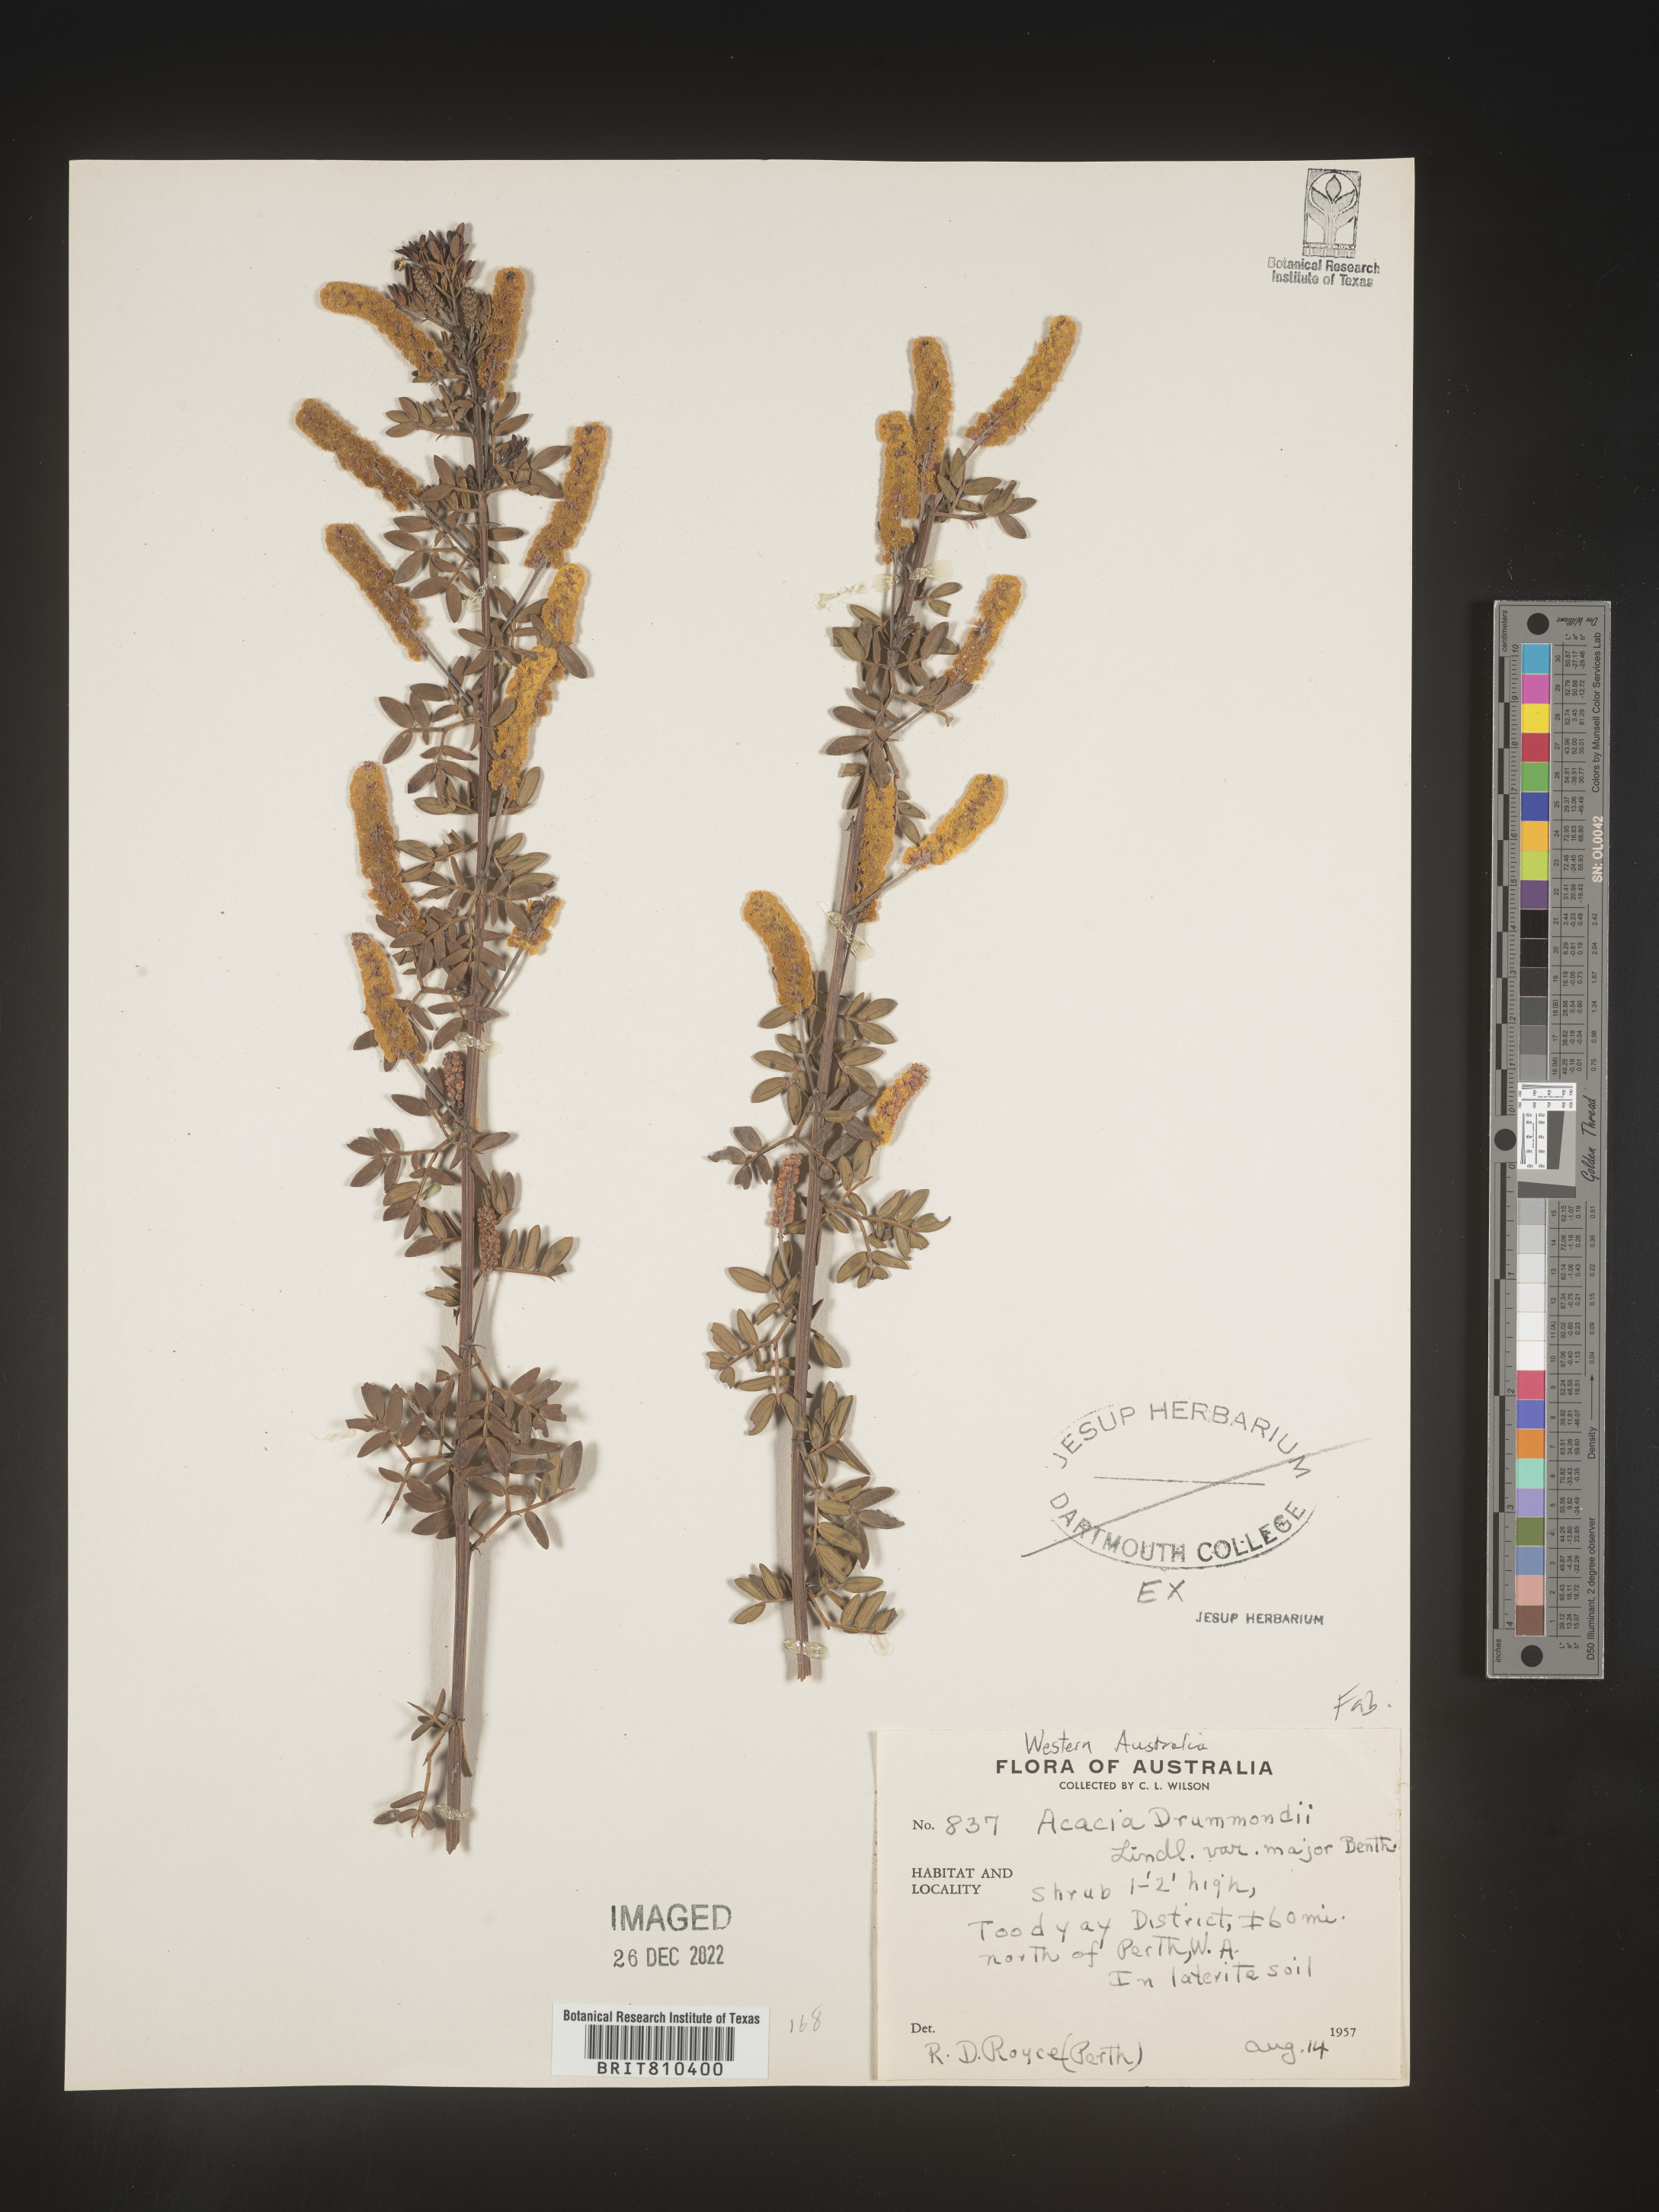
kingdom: Plantae
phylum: Tracheophyta
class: Magnoliopsida
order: Fabales
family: Fabaceae
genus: Acacia
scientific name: Acacia
